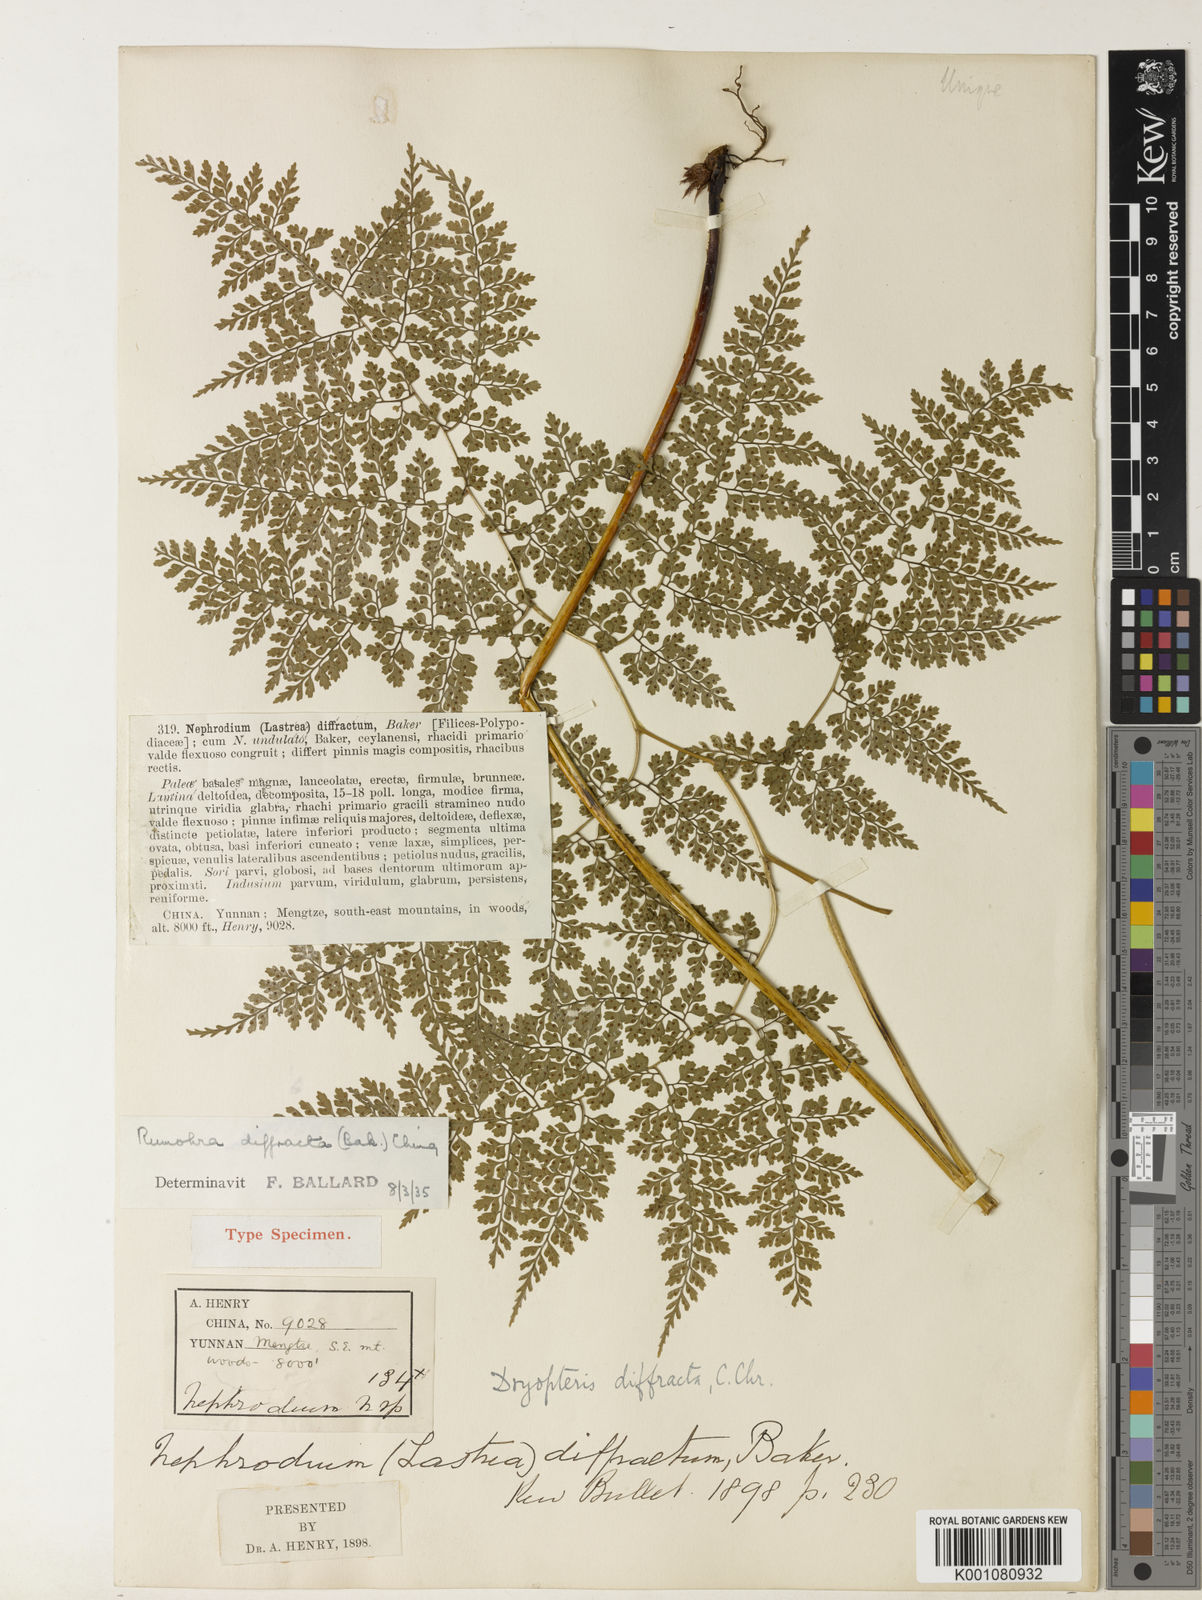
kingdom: Plantae
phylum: Tracheophyta
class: Polypodiopsida
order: Polypodiales
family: Dryopteridaceae
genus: Dryopteris
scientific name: Dryopteris diffracta
